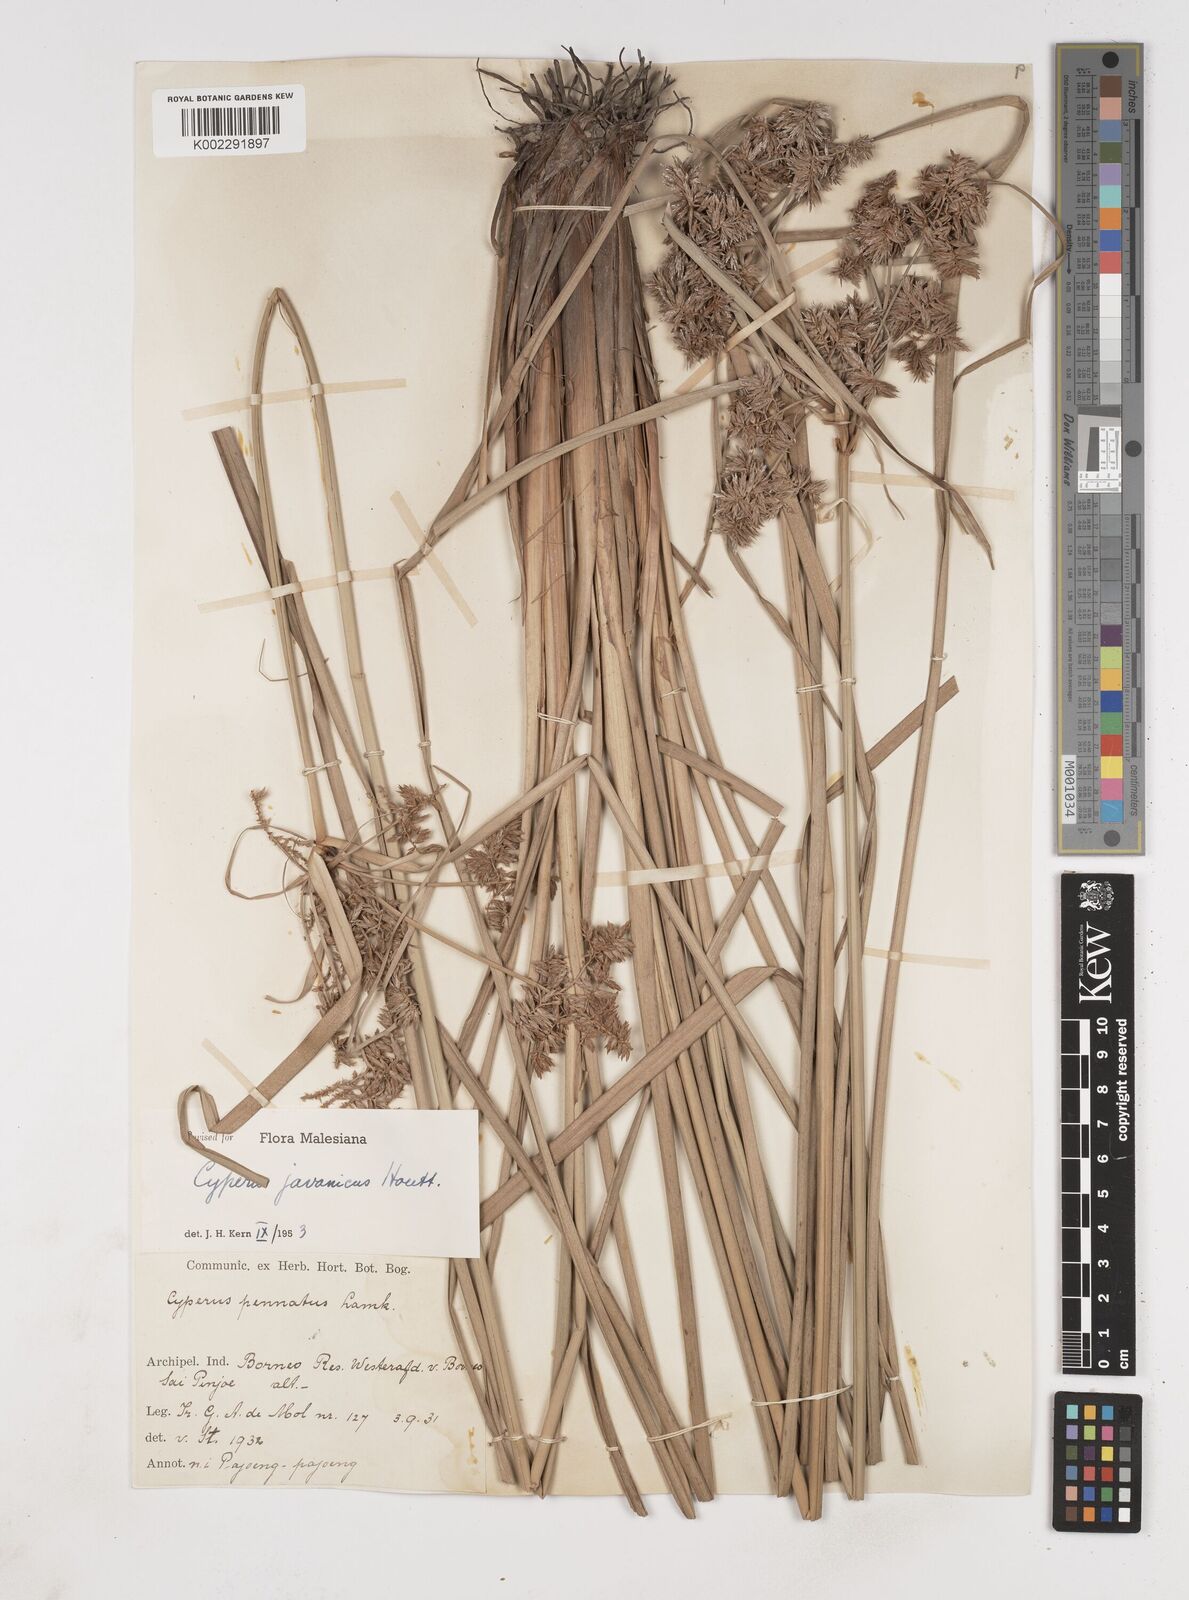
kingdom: Plantae
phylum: Tracheophyta
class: Liliopsida
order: Poales
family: Cyperaceae
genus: Cyperus
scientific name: Cyperus javanicus
